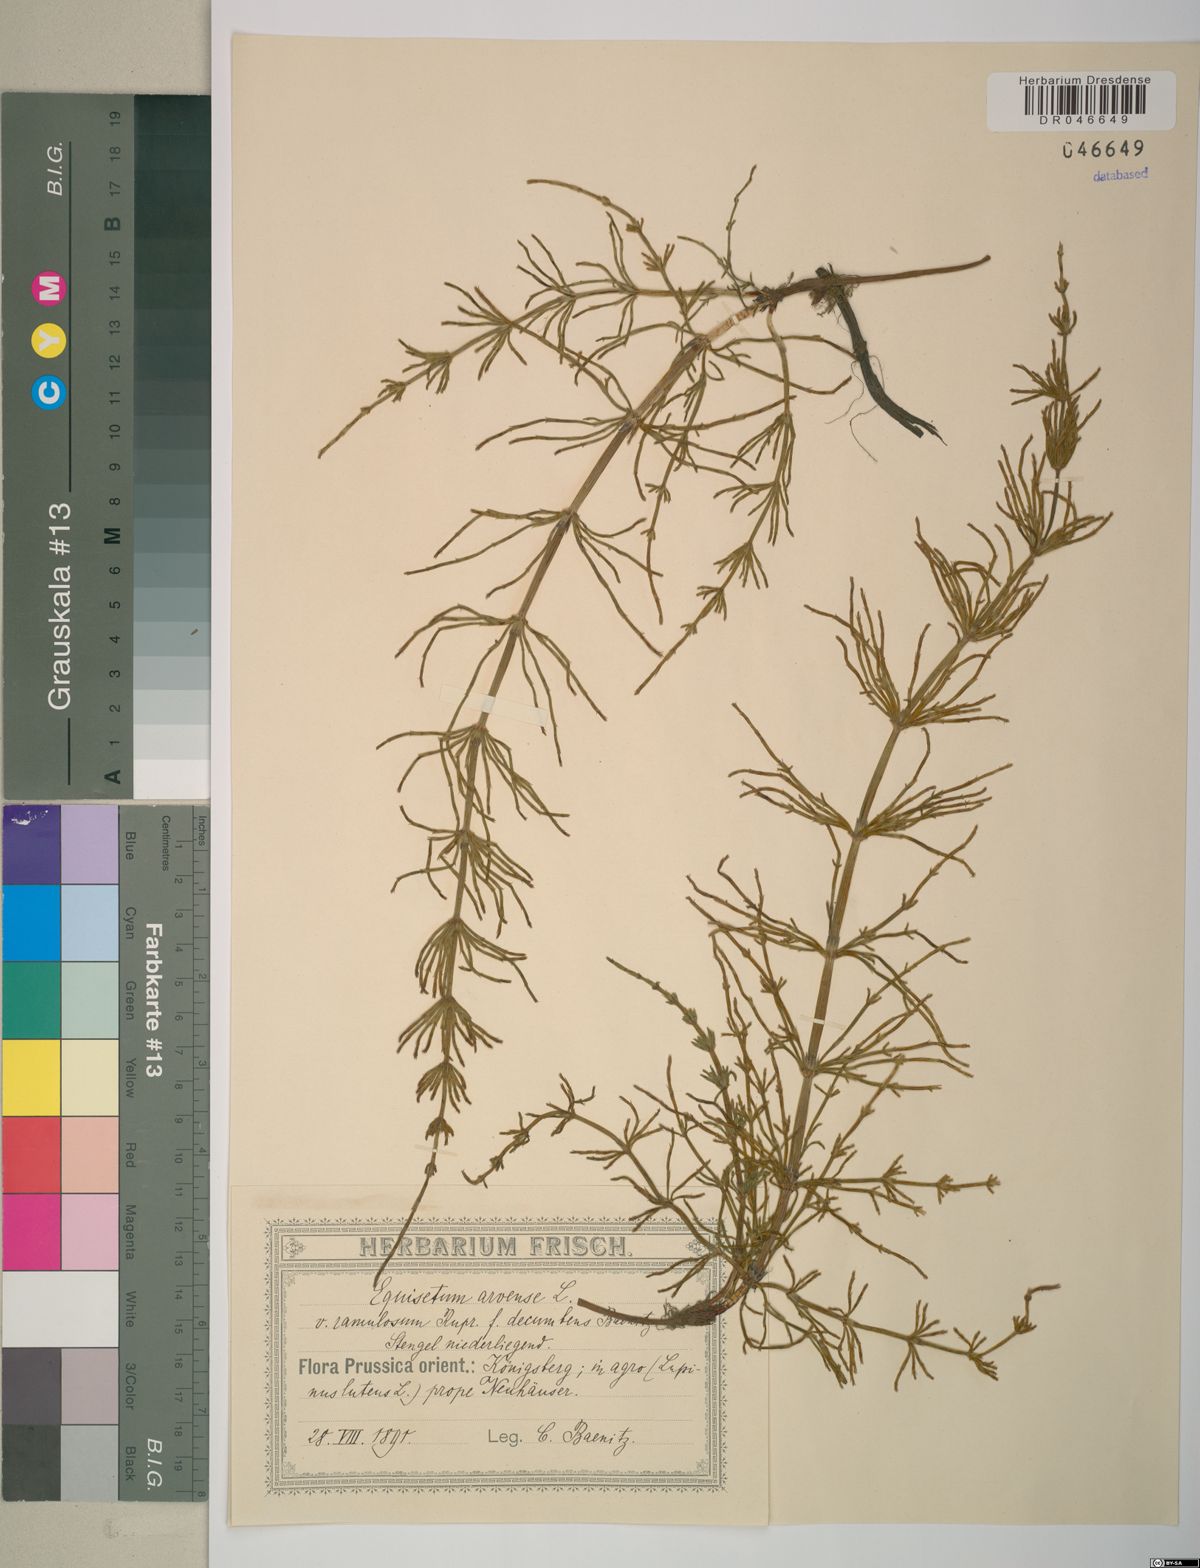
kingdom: Plantae
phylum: Tracheophyta
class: Polypodiopsida
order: Equisetales
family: Equisetaceae
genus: Equisetum
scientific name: Equisetum arvense
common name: Field horsetail
